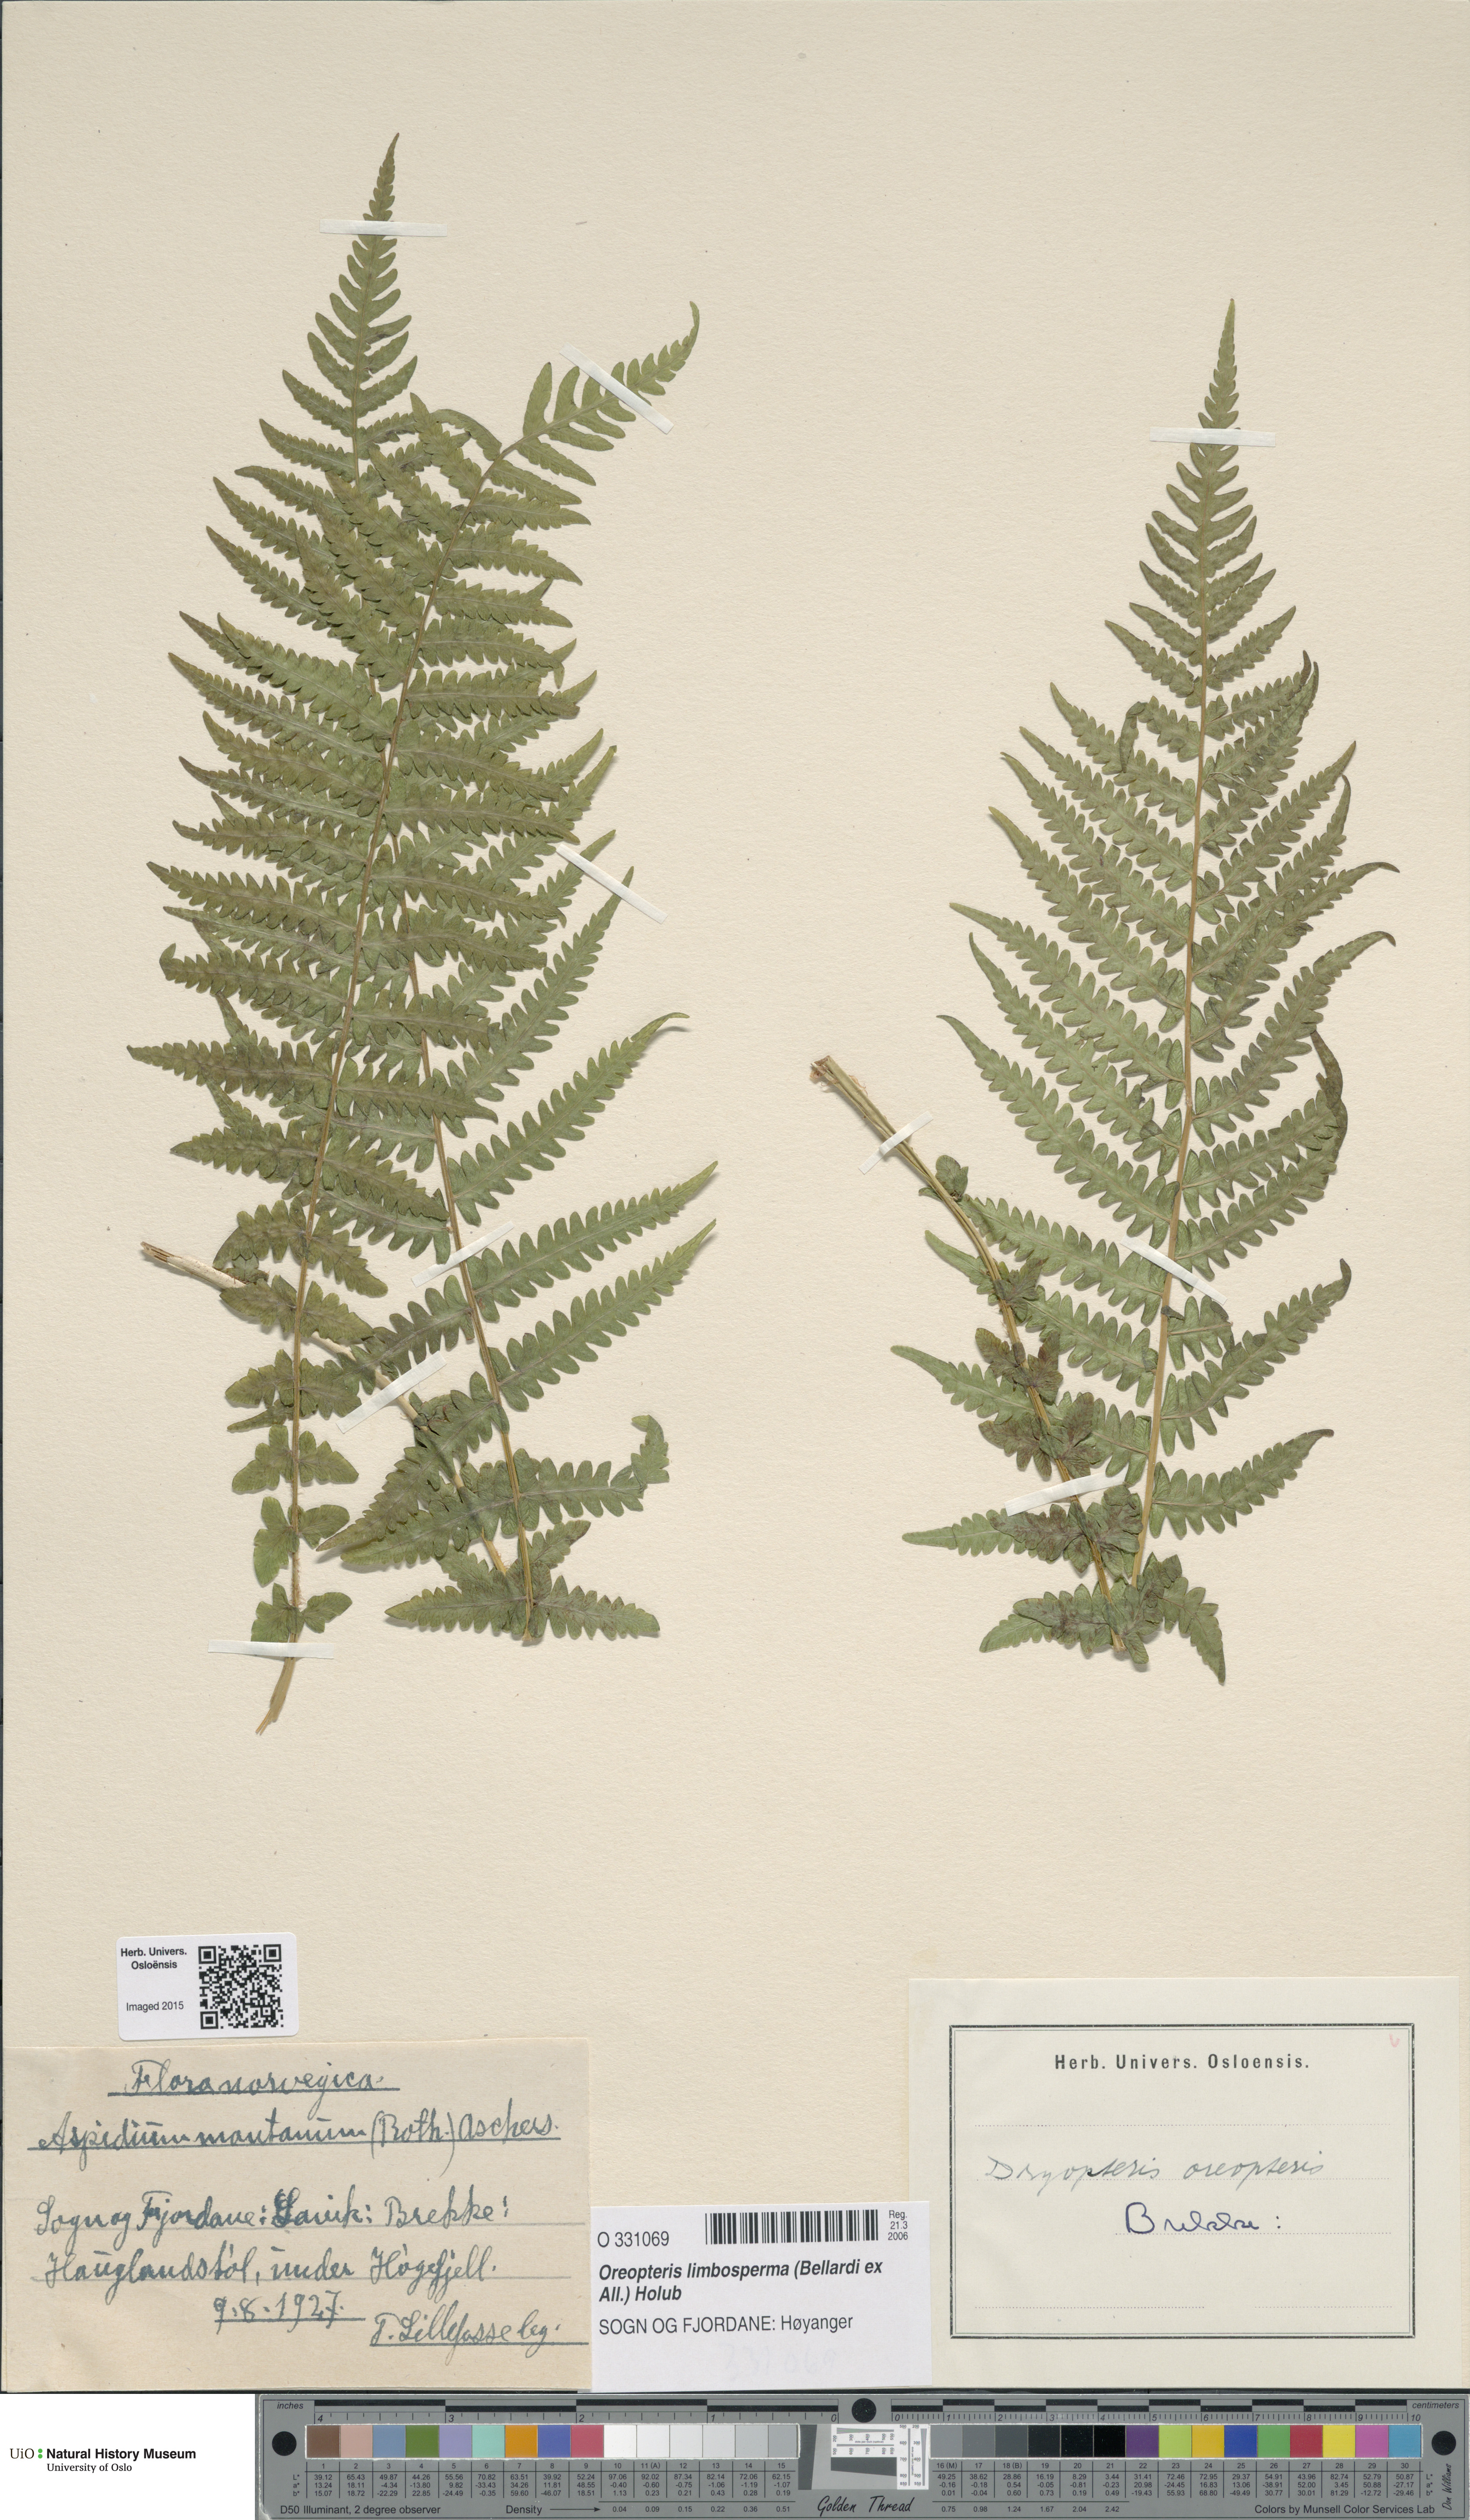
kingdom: Plantae
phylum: Tracheophyta
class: Polypodiopsida
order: Polypodiales
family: Thelypteridaceae
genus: Oreopteris
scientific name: Oreopteris limbosperma
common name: Lemon-scented fern
